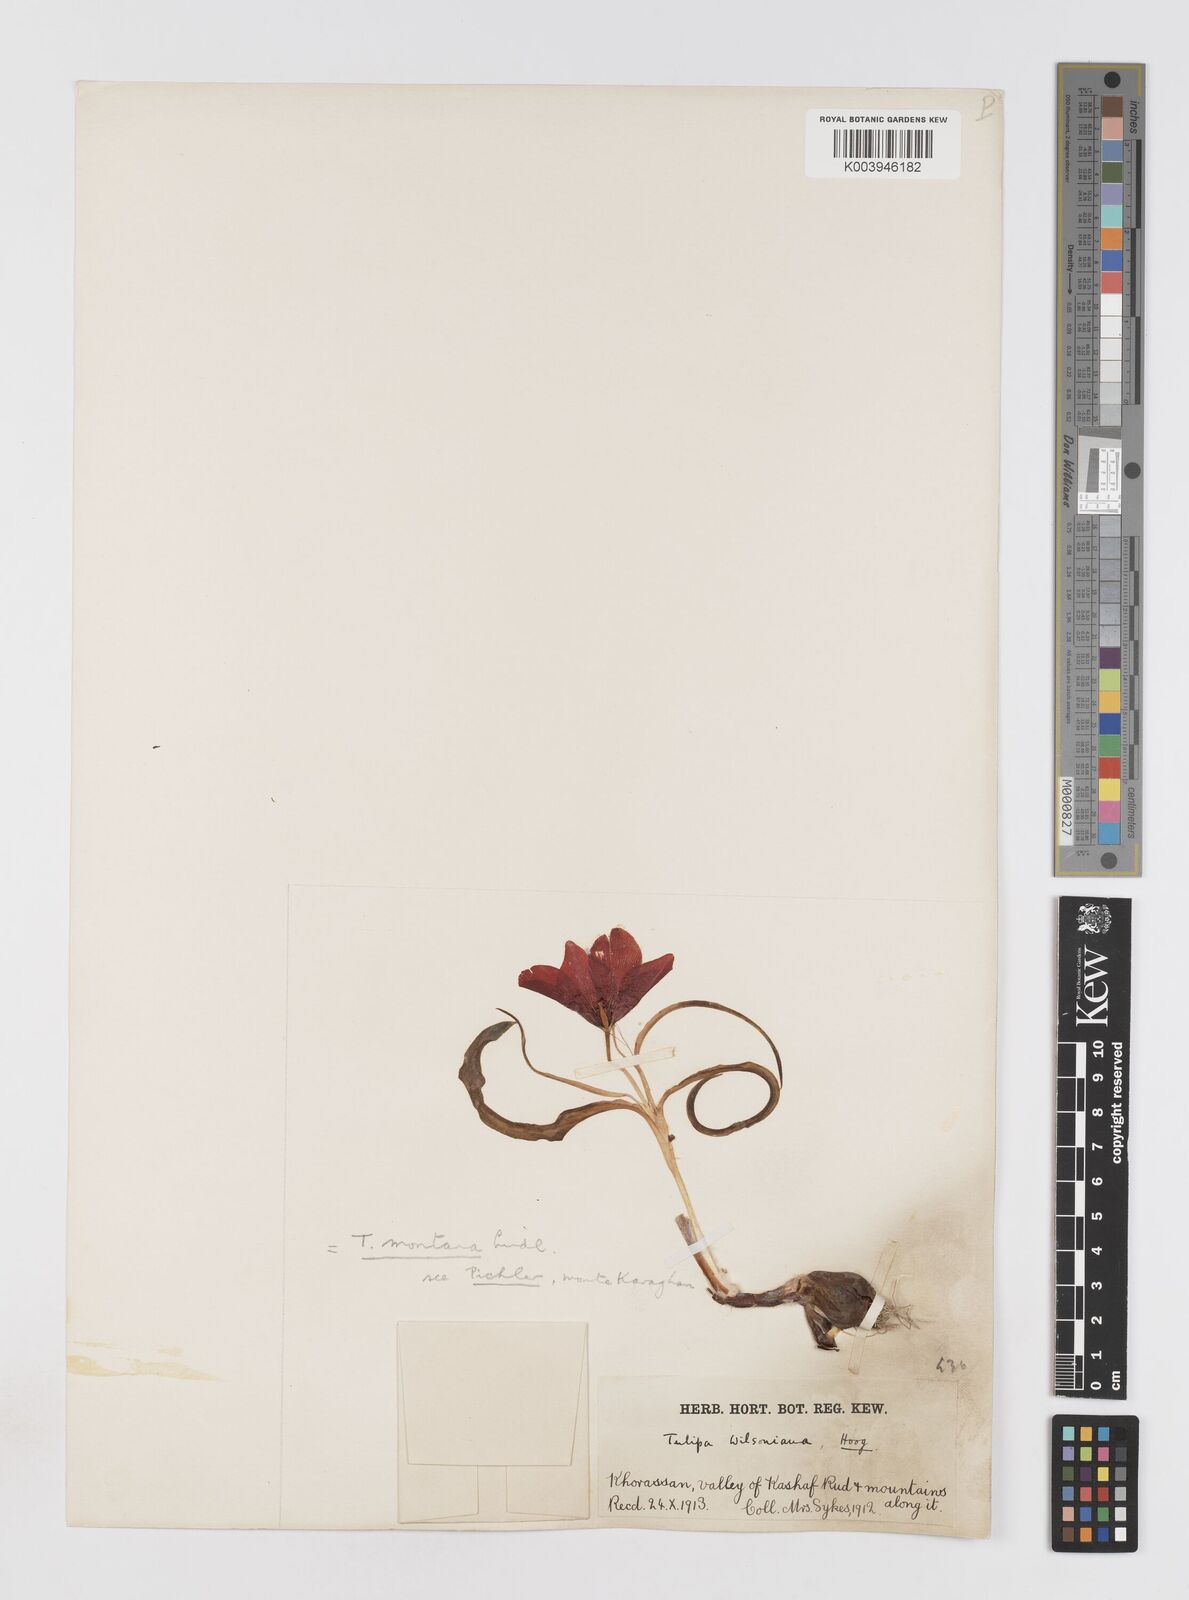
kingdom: Plantae
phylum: Tracheophyta
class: Liliopsida
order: Liliales
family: Liliaceae
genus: Tulipa
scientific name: Tulipa montana
